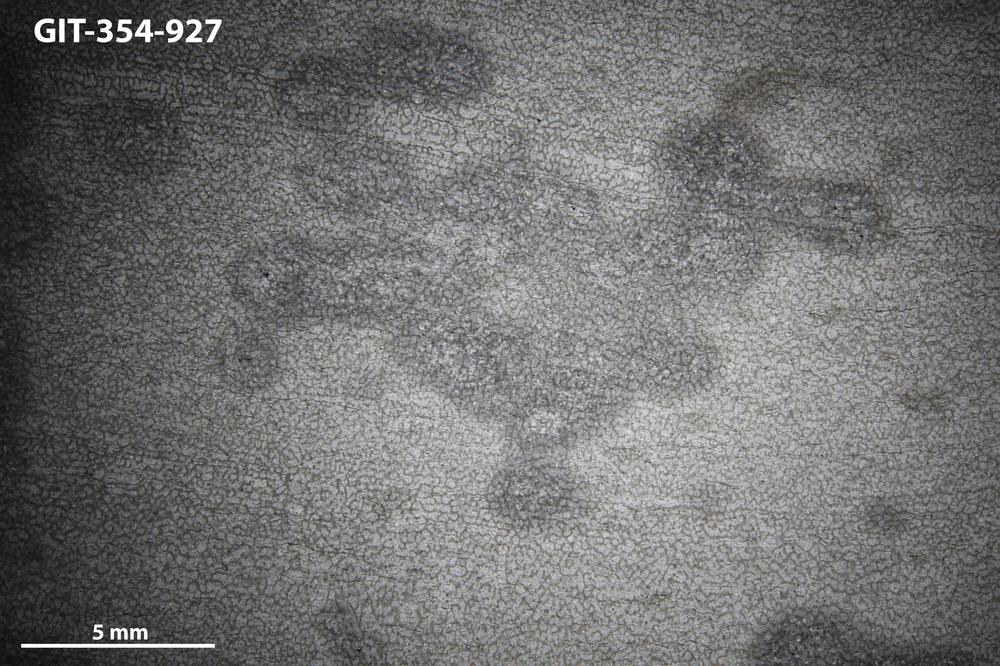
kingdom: Animalia
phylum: Porifera
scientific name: Porifera
